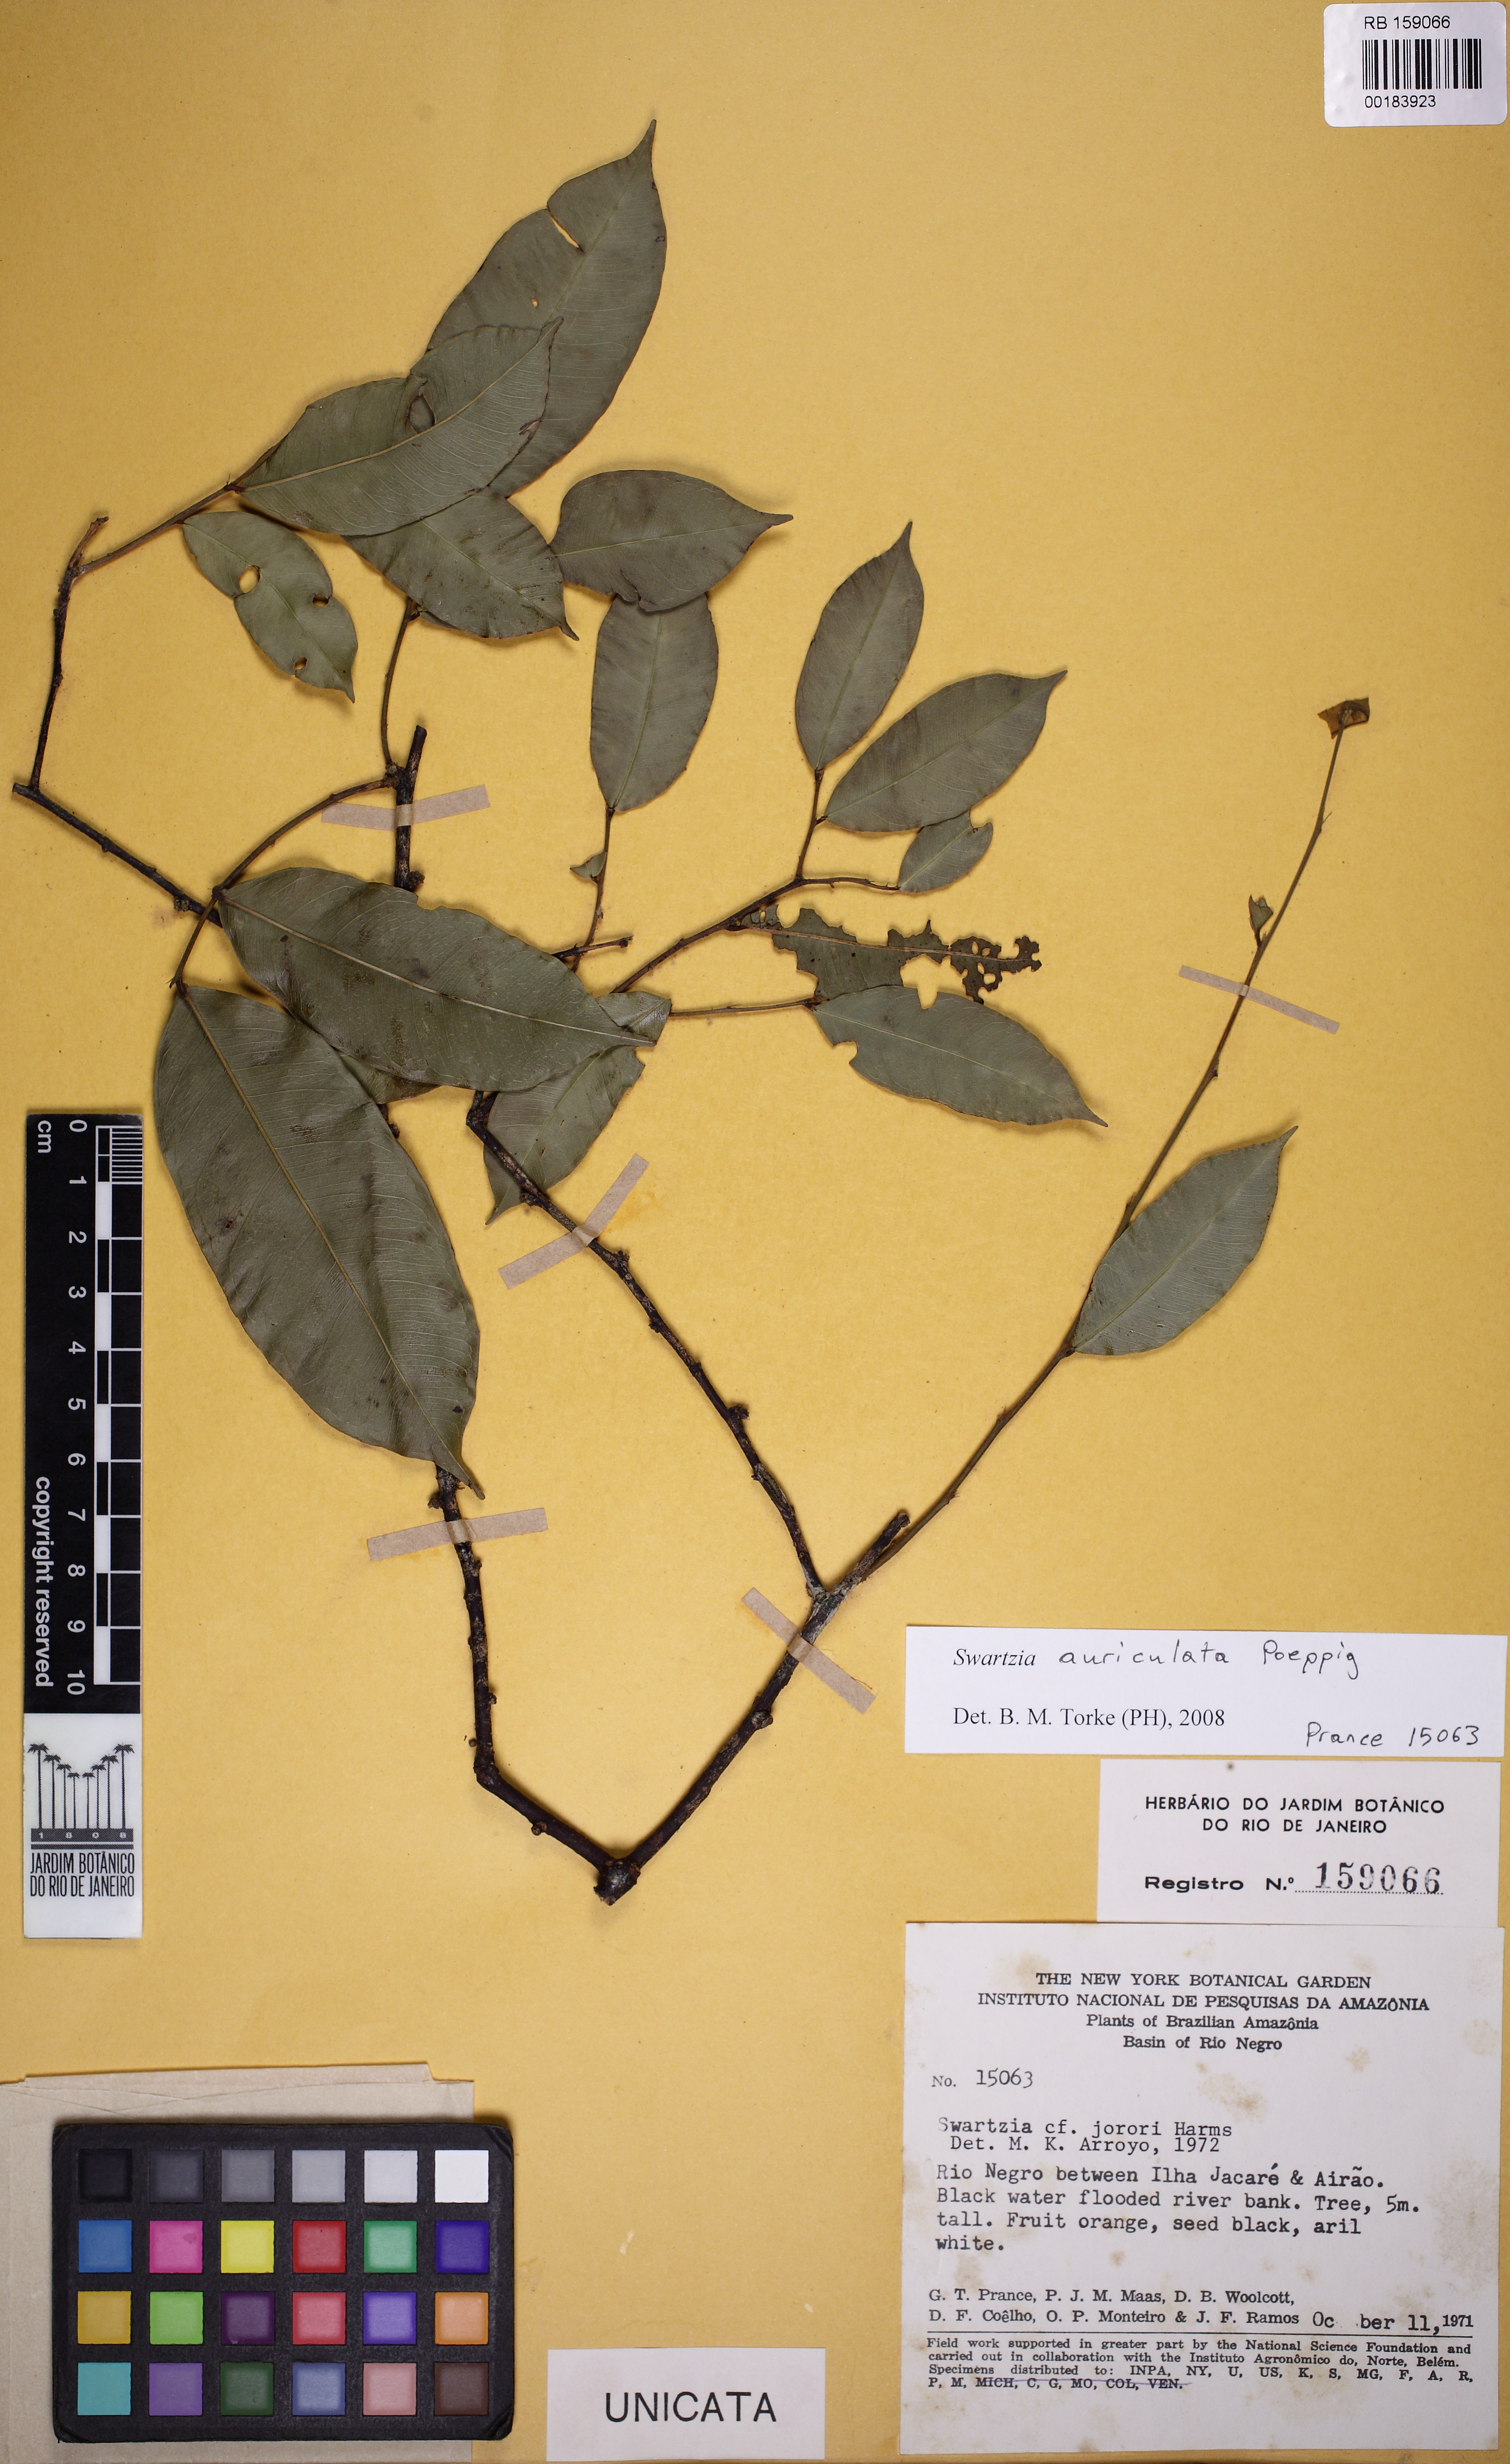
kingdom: Plantae
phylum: Tracheophyta
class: Magnoliopsida
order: Fabales
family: Fabaceae
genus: Swartzia
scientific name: Swartzia auriculata
